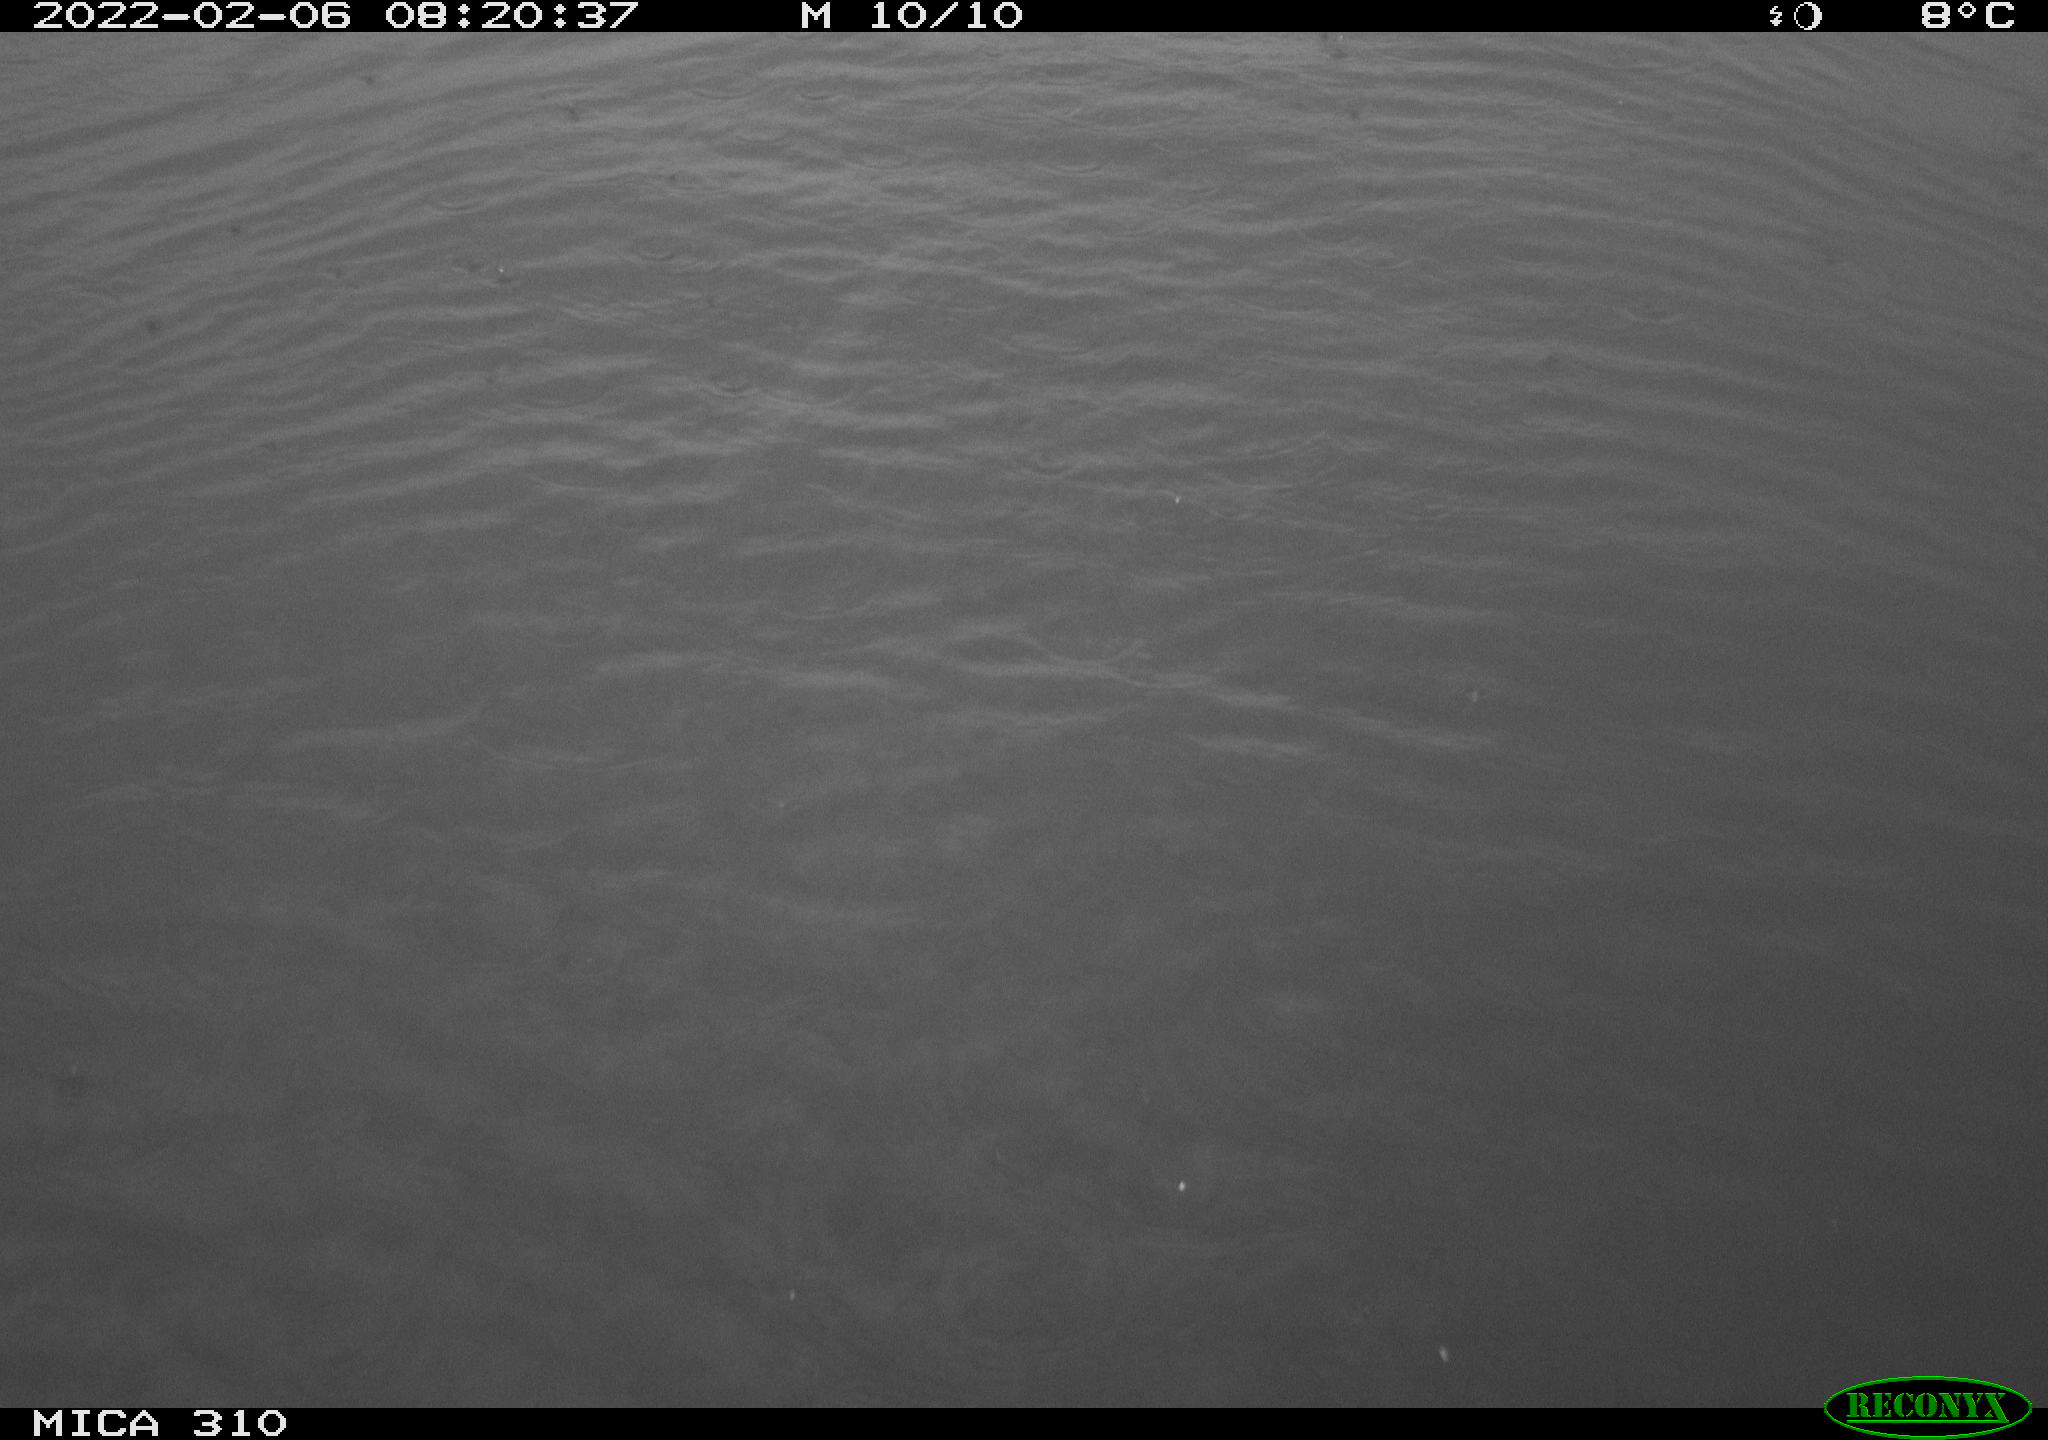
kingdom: Animalia
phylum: Chordata
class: Aves
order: Gruiformes
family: Rallidae
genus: Fulica
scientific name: Fulica atra
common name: Eurasian coot
